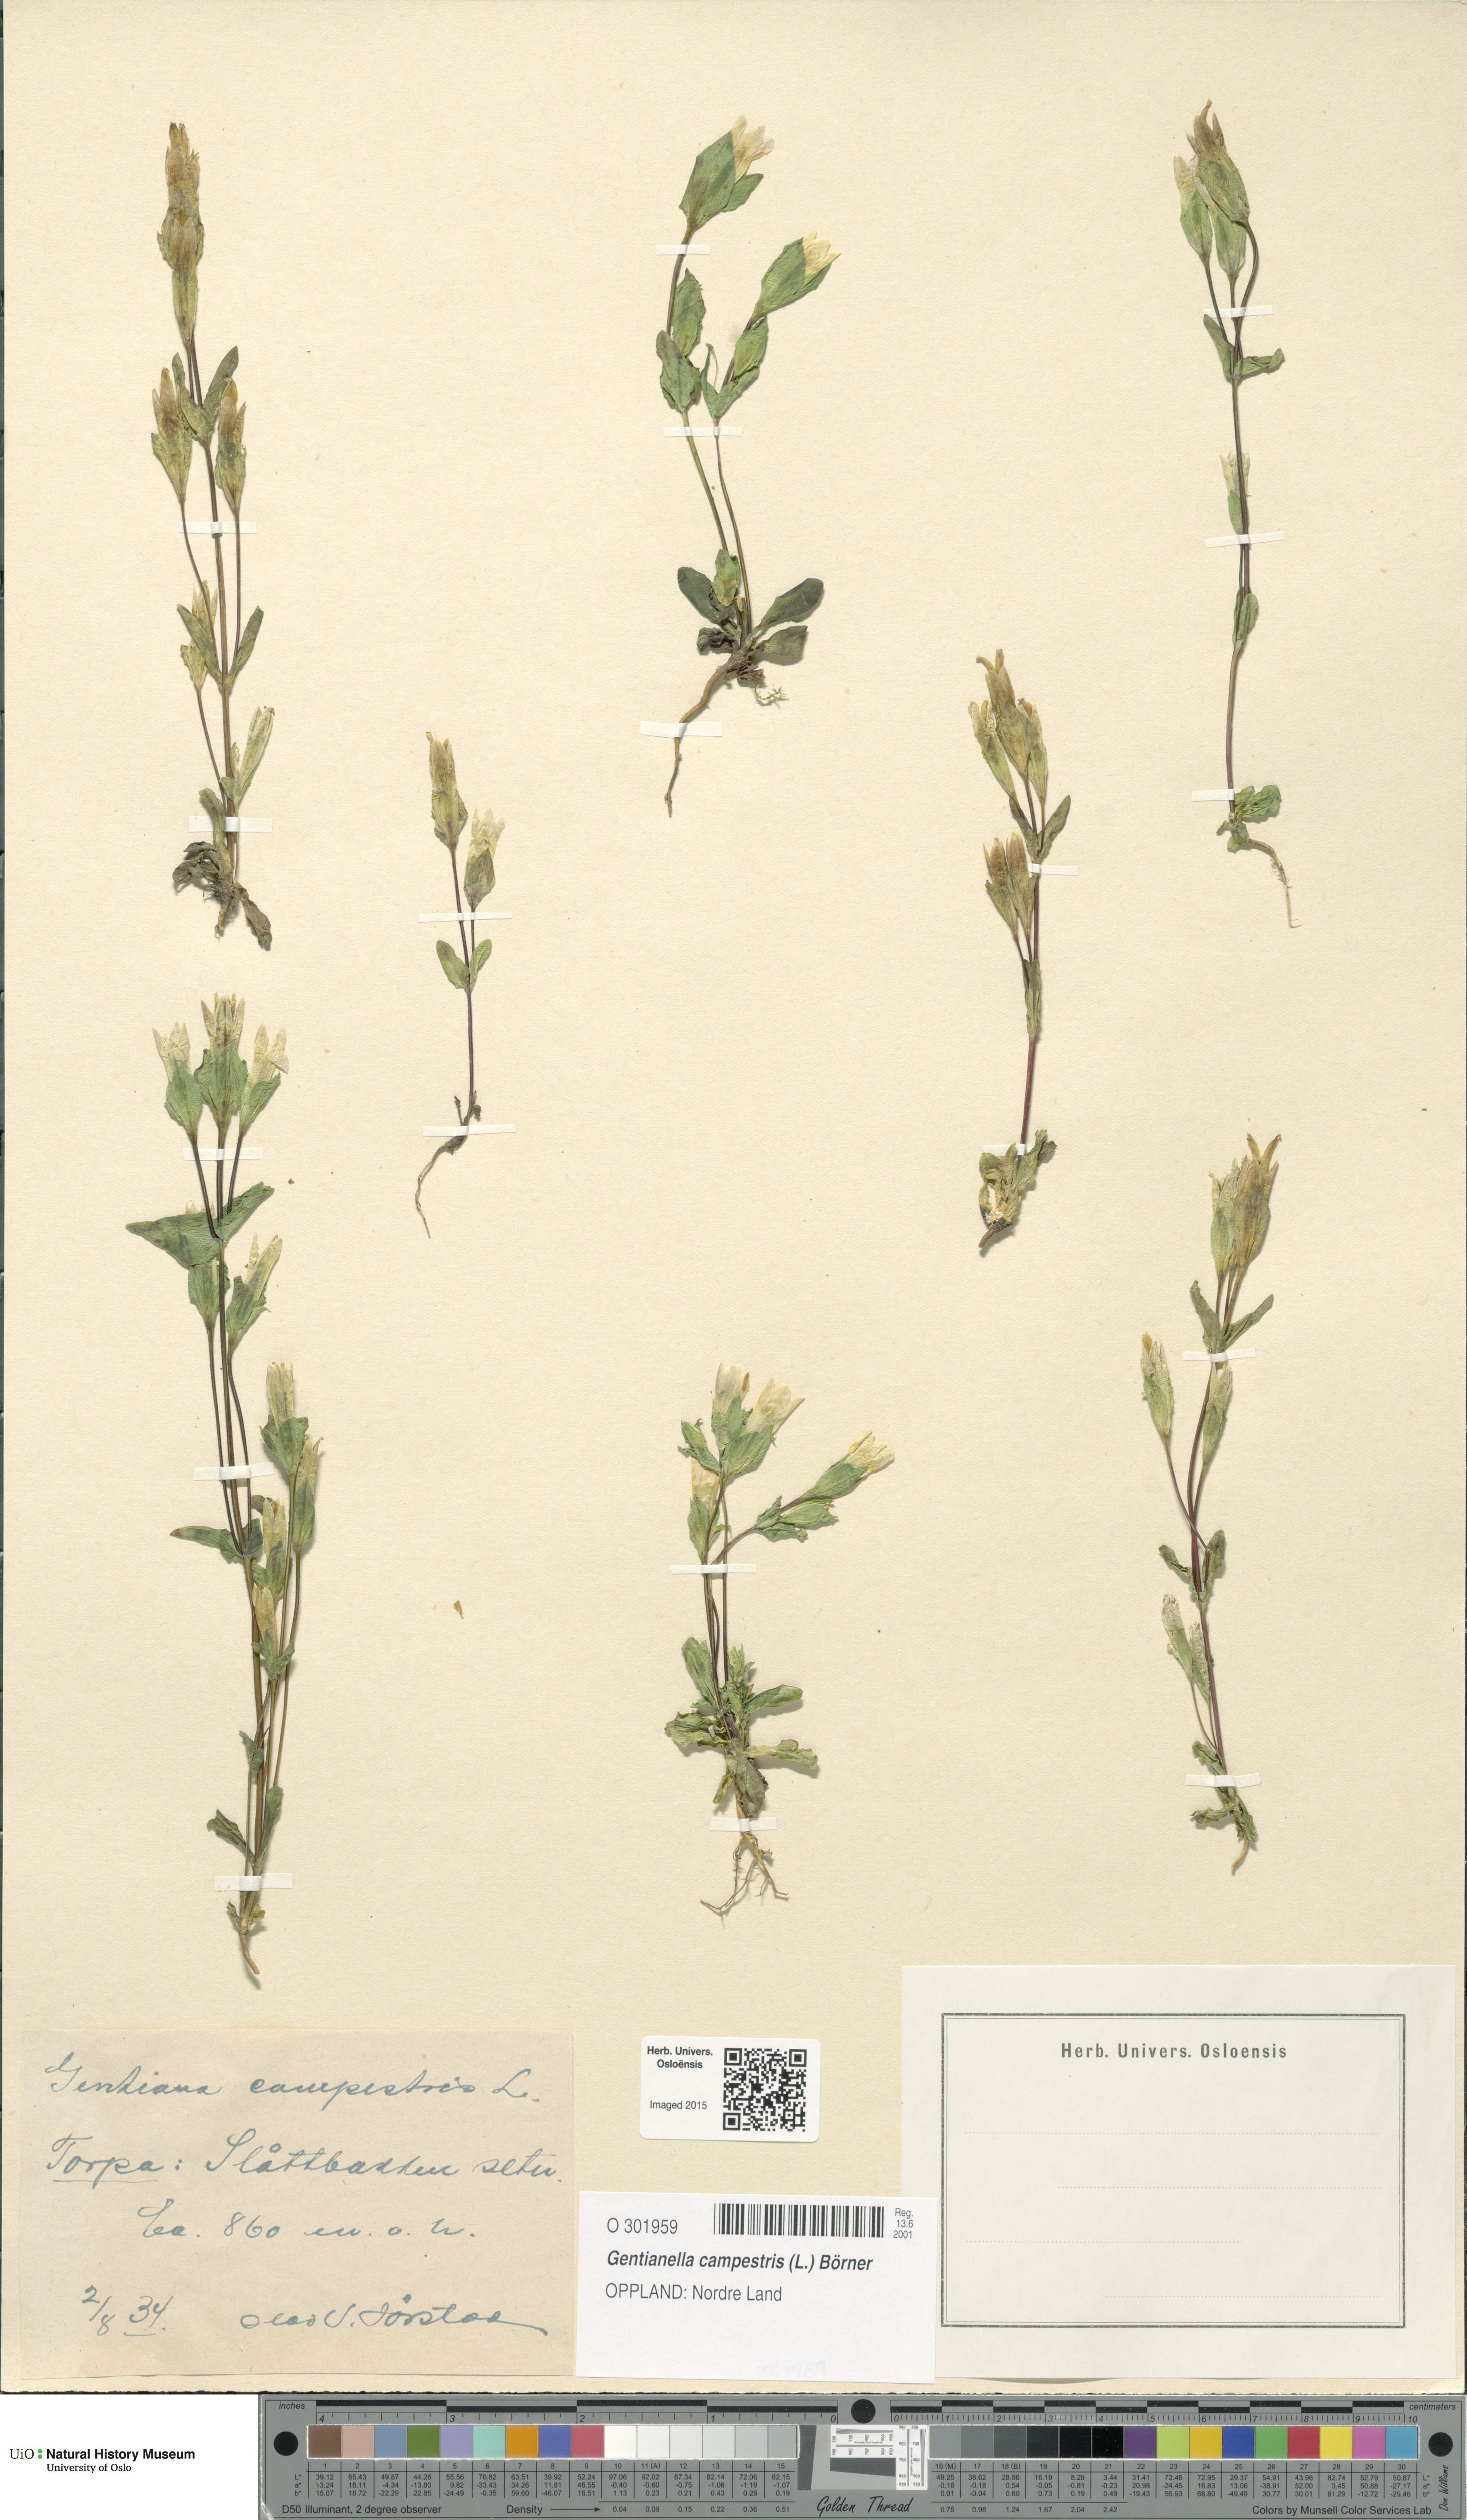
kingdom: Plantae
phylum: Tracheophyta
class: Magnoliopsida
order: Gentianales
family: Gentianaceae
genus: Gentianella
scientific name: Gentianella campestris
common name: Field gentian
